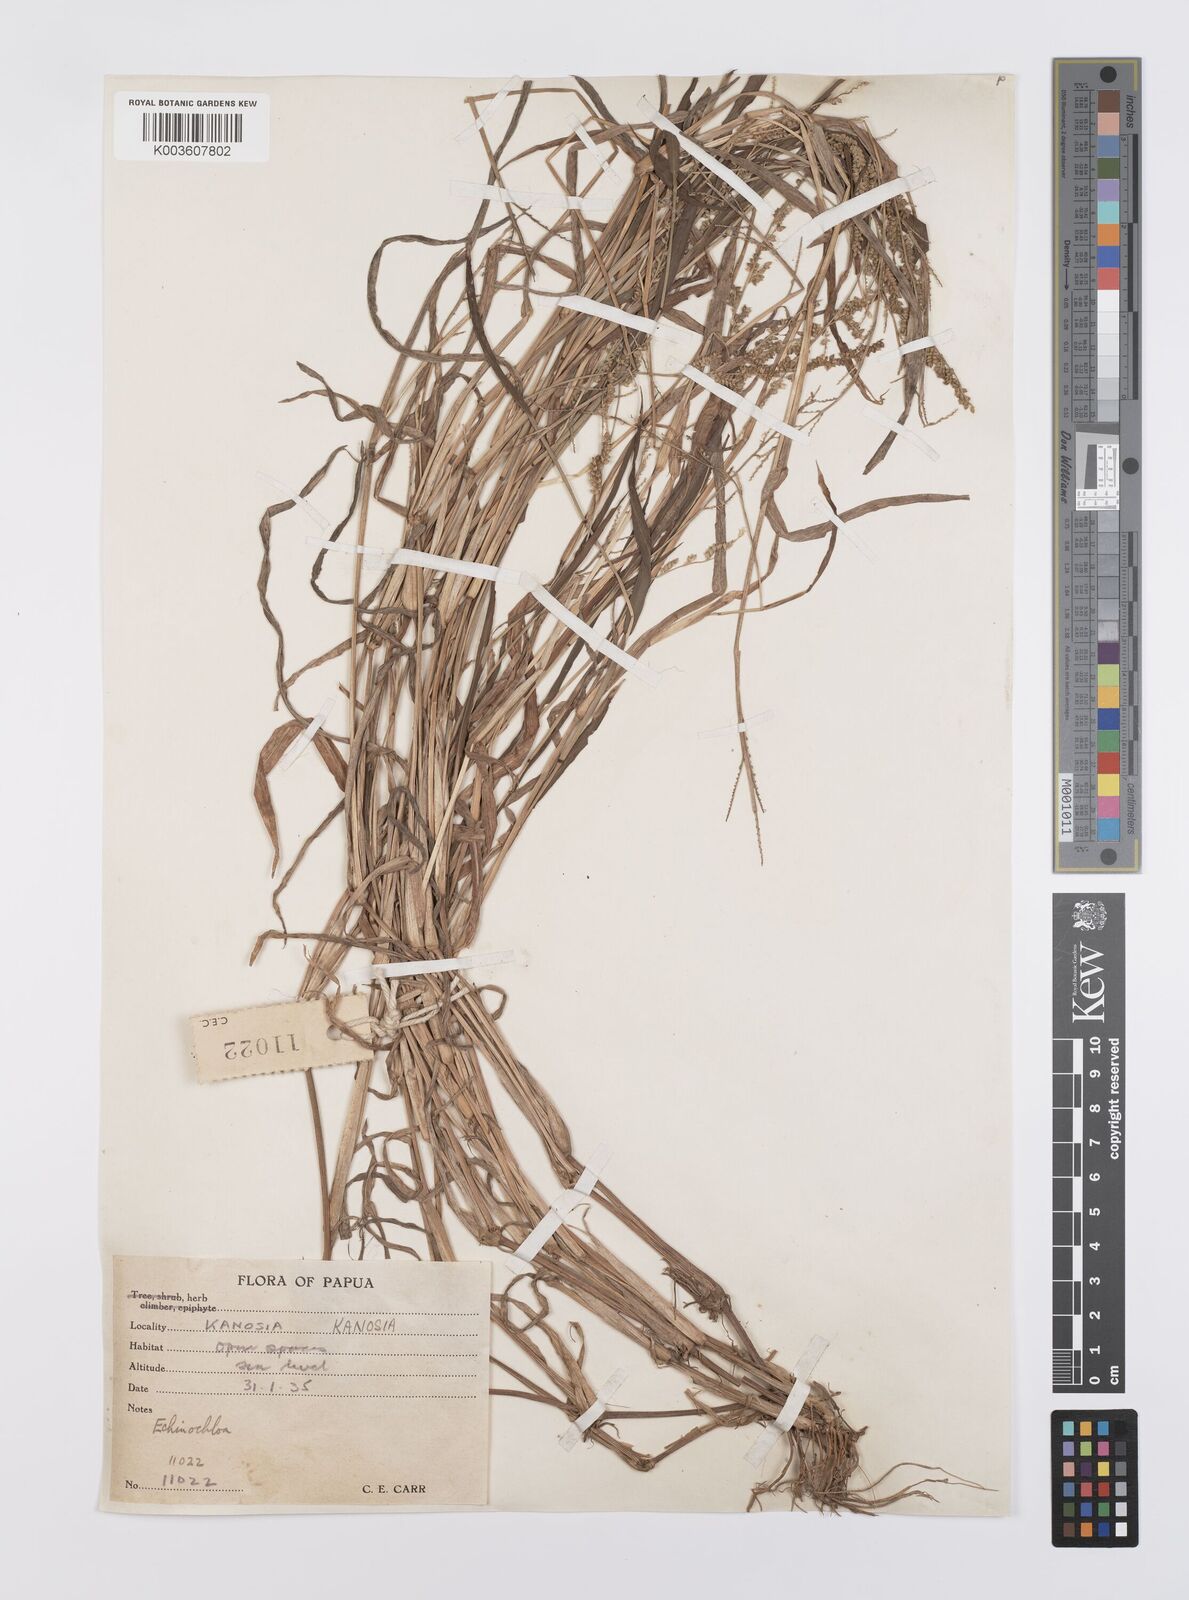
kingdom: Plantae
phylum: Tracheophyta
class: Liliopsida
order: Poales
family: Poaceae
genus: Echinochloa
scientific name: Echinochloa colonum
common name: Jungle rice
